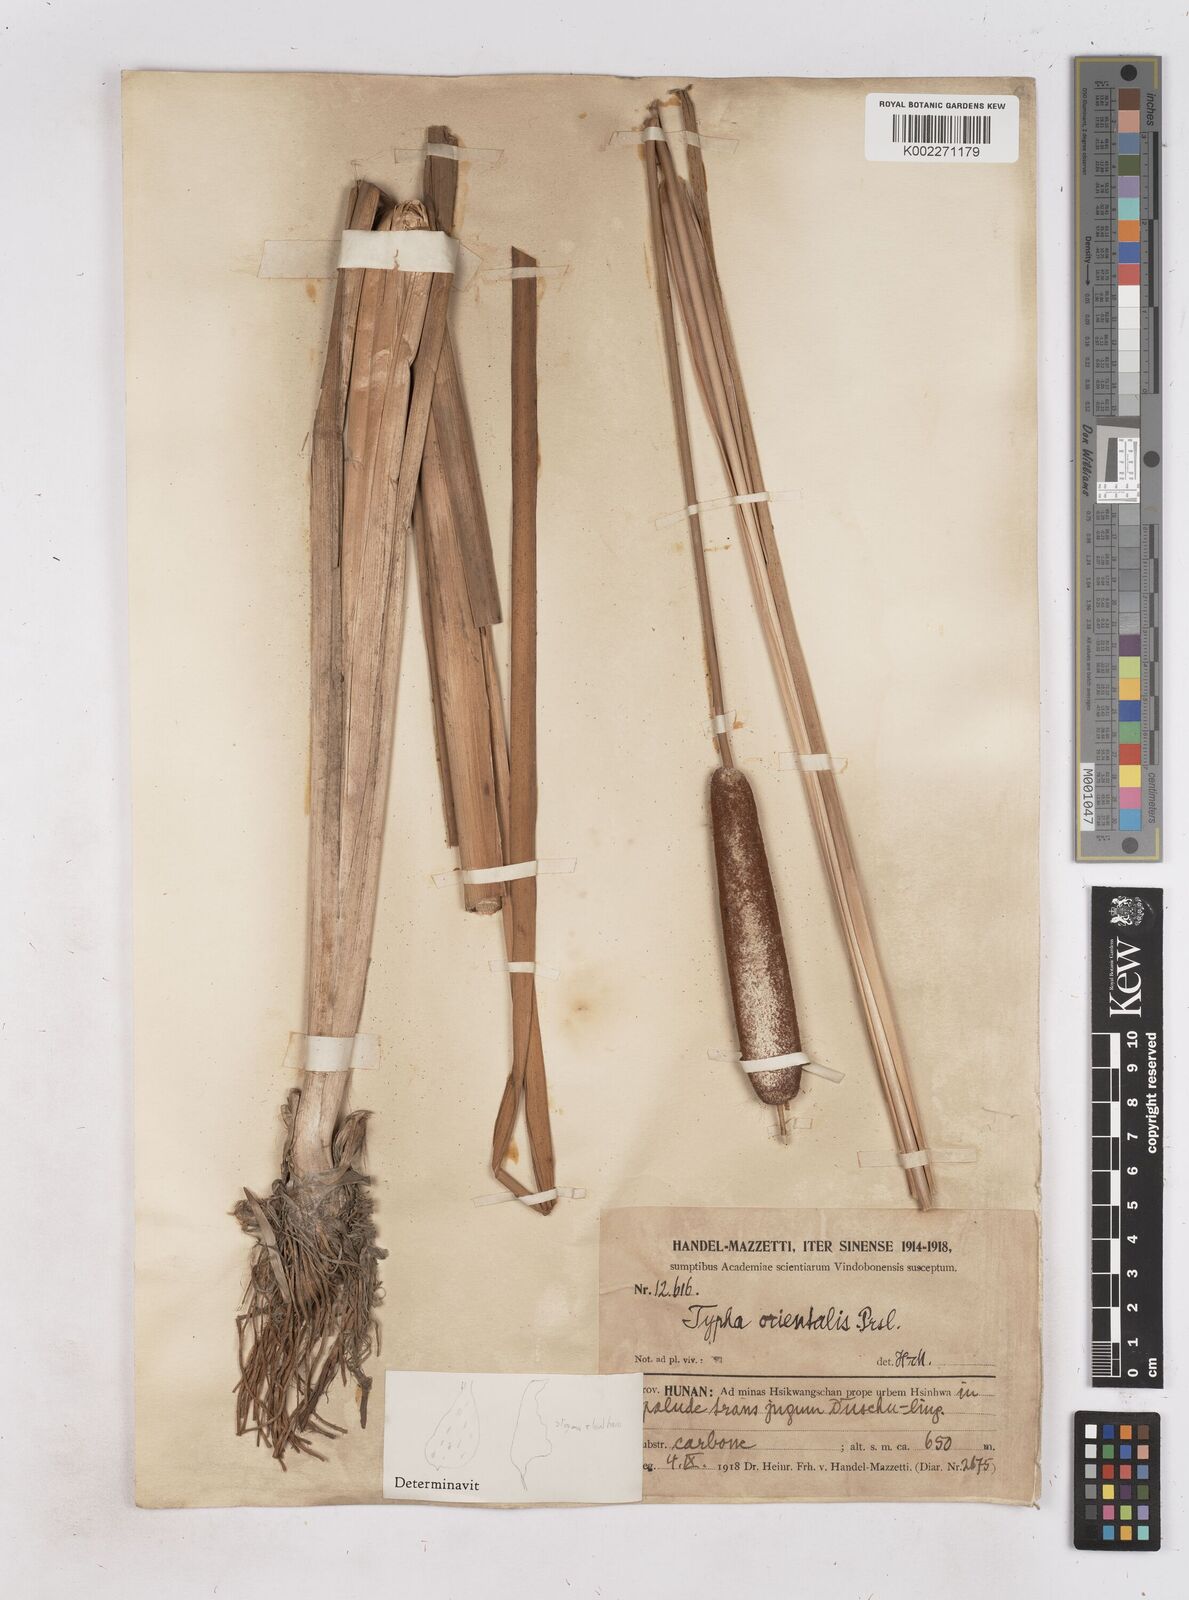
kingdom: Plantae
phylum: Tracheophyta
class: Liliopsida
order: Poales
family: Typhaceae
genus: Typha
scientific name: Typha shuttleworthii
